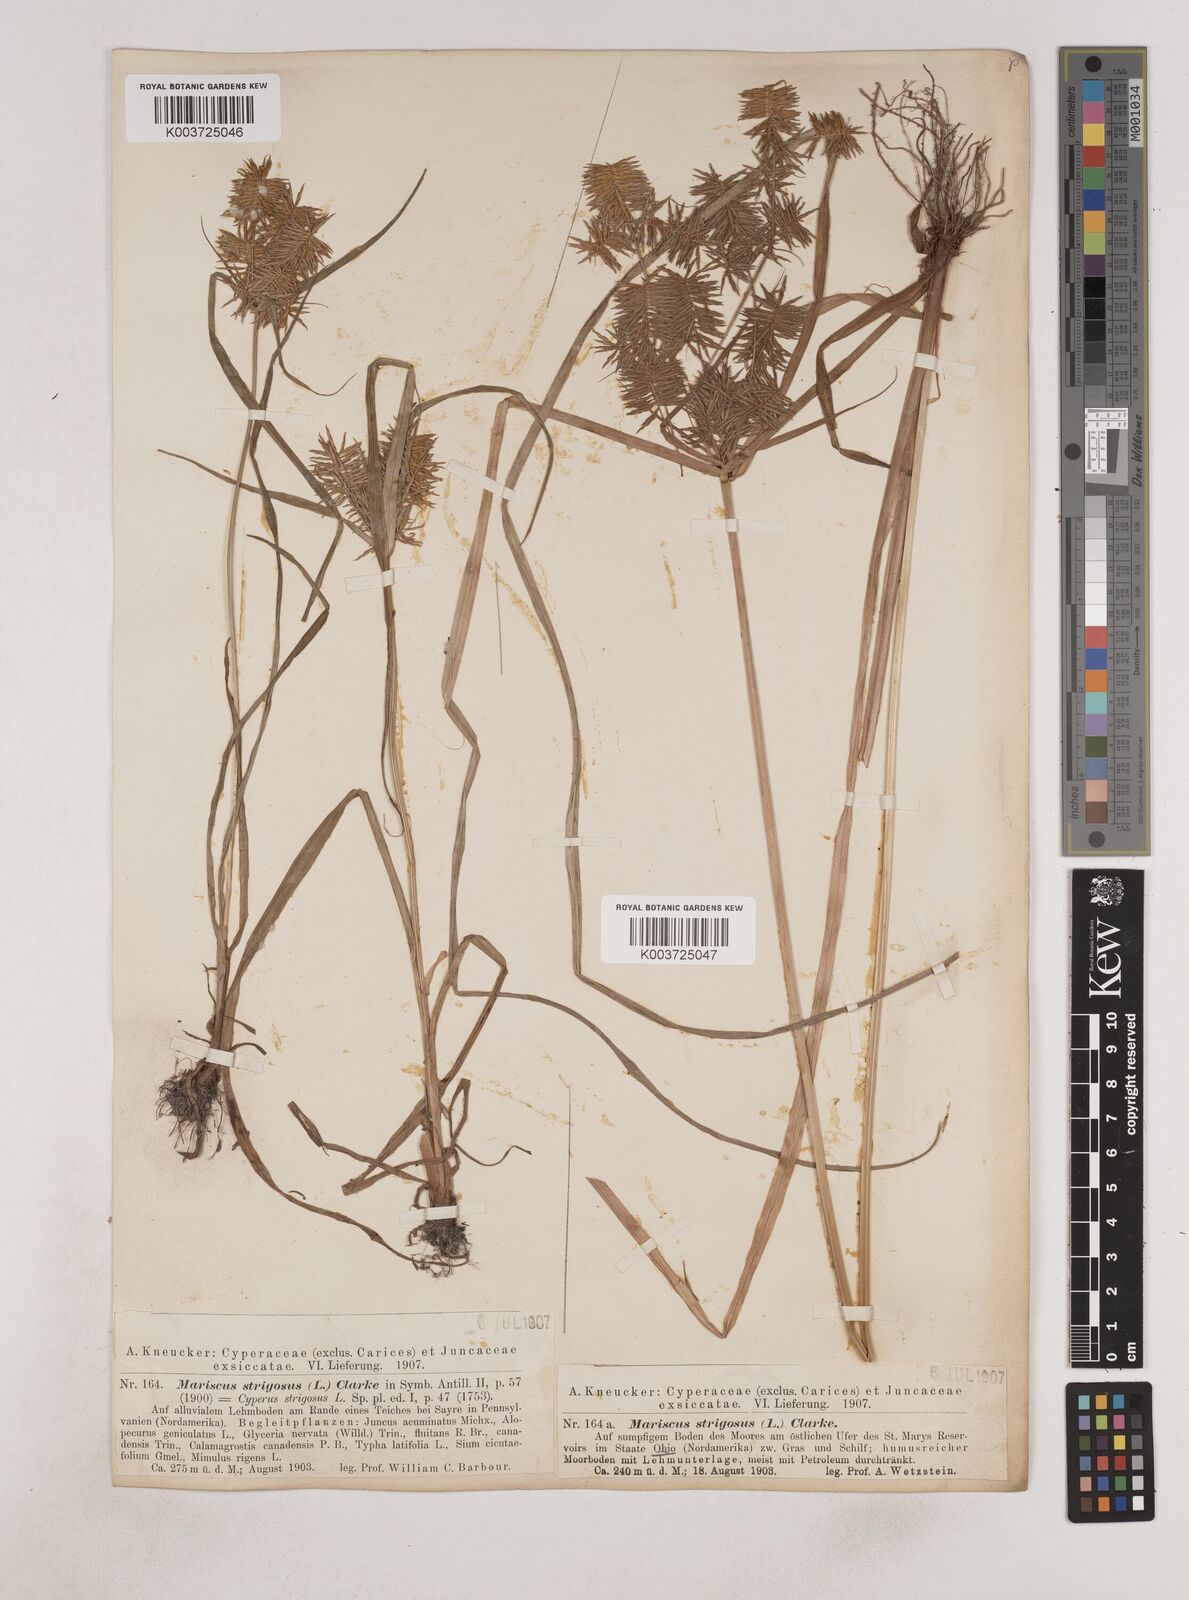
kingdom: Plantae
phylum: Tracheophyta
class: Liliopsida
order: Poales
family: Cyperaceae
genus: Cyperus
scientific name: Cyperus strigosus
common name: False nutsedge
